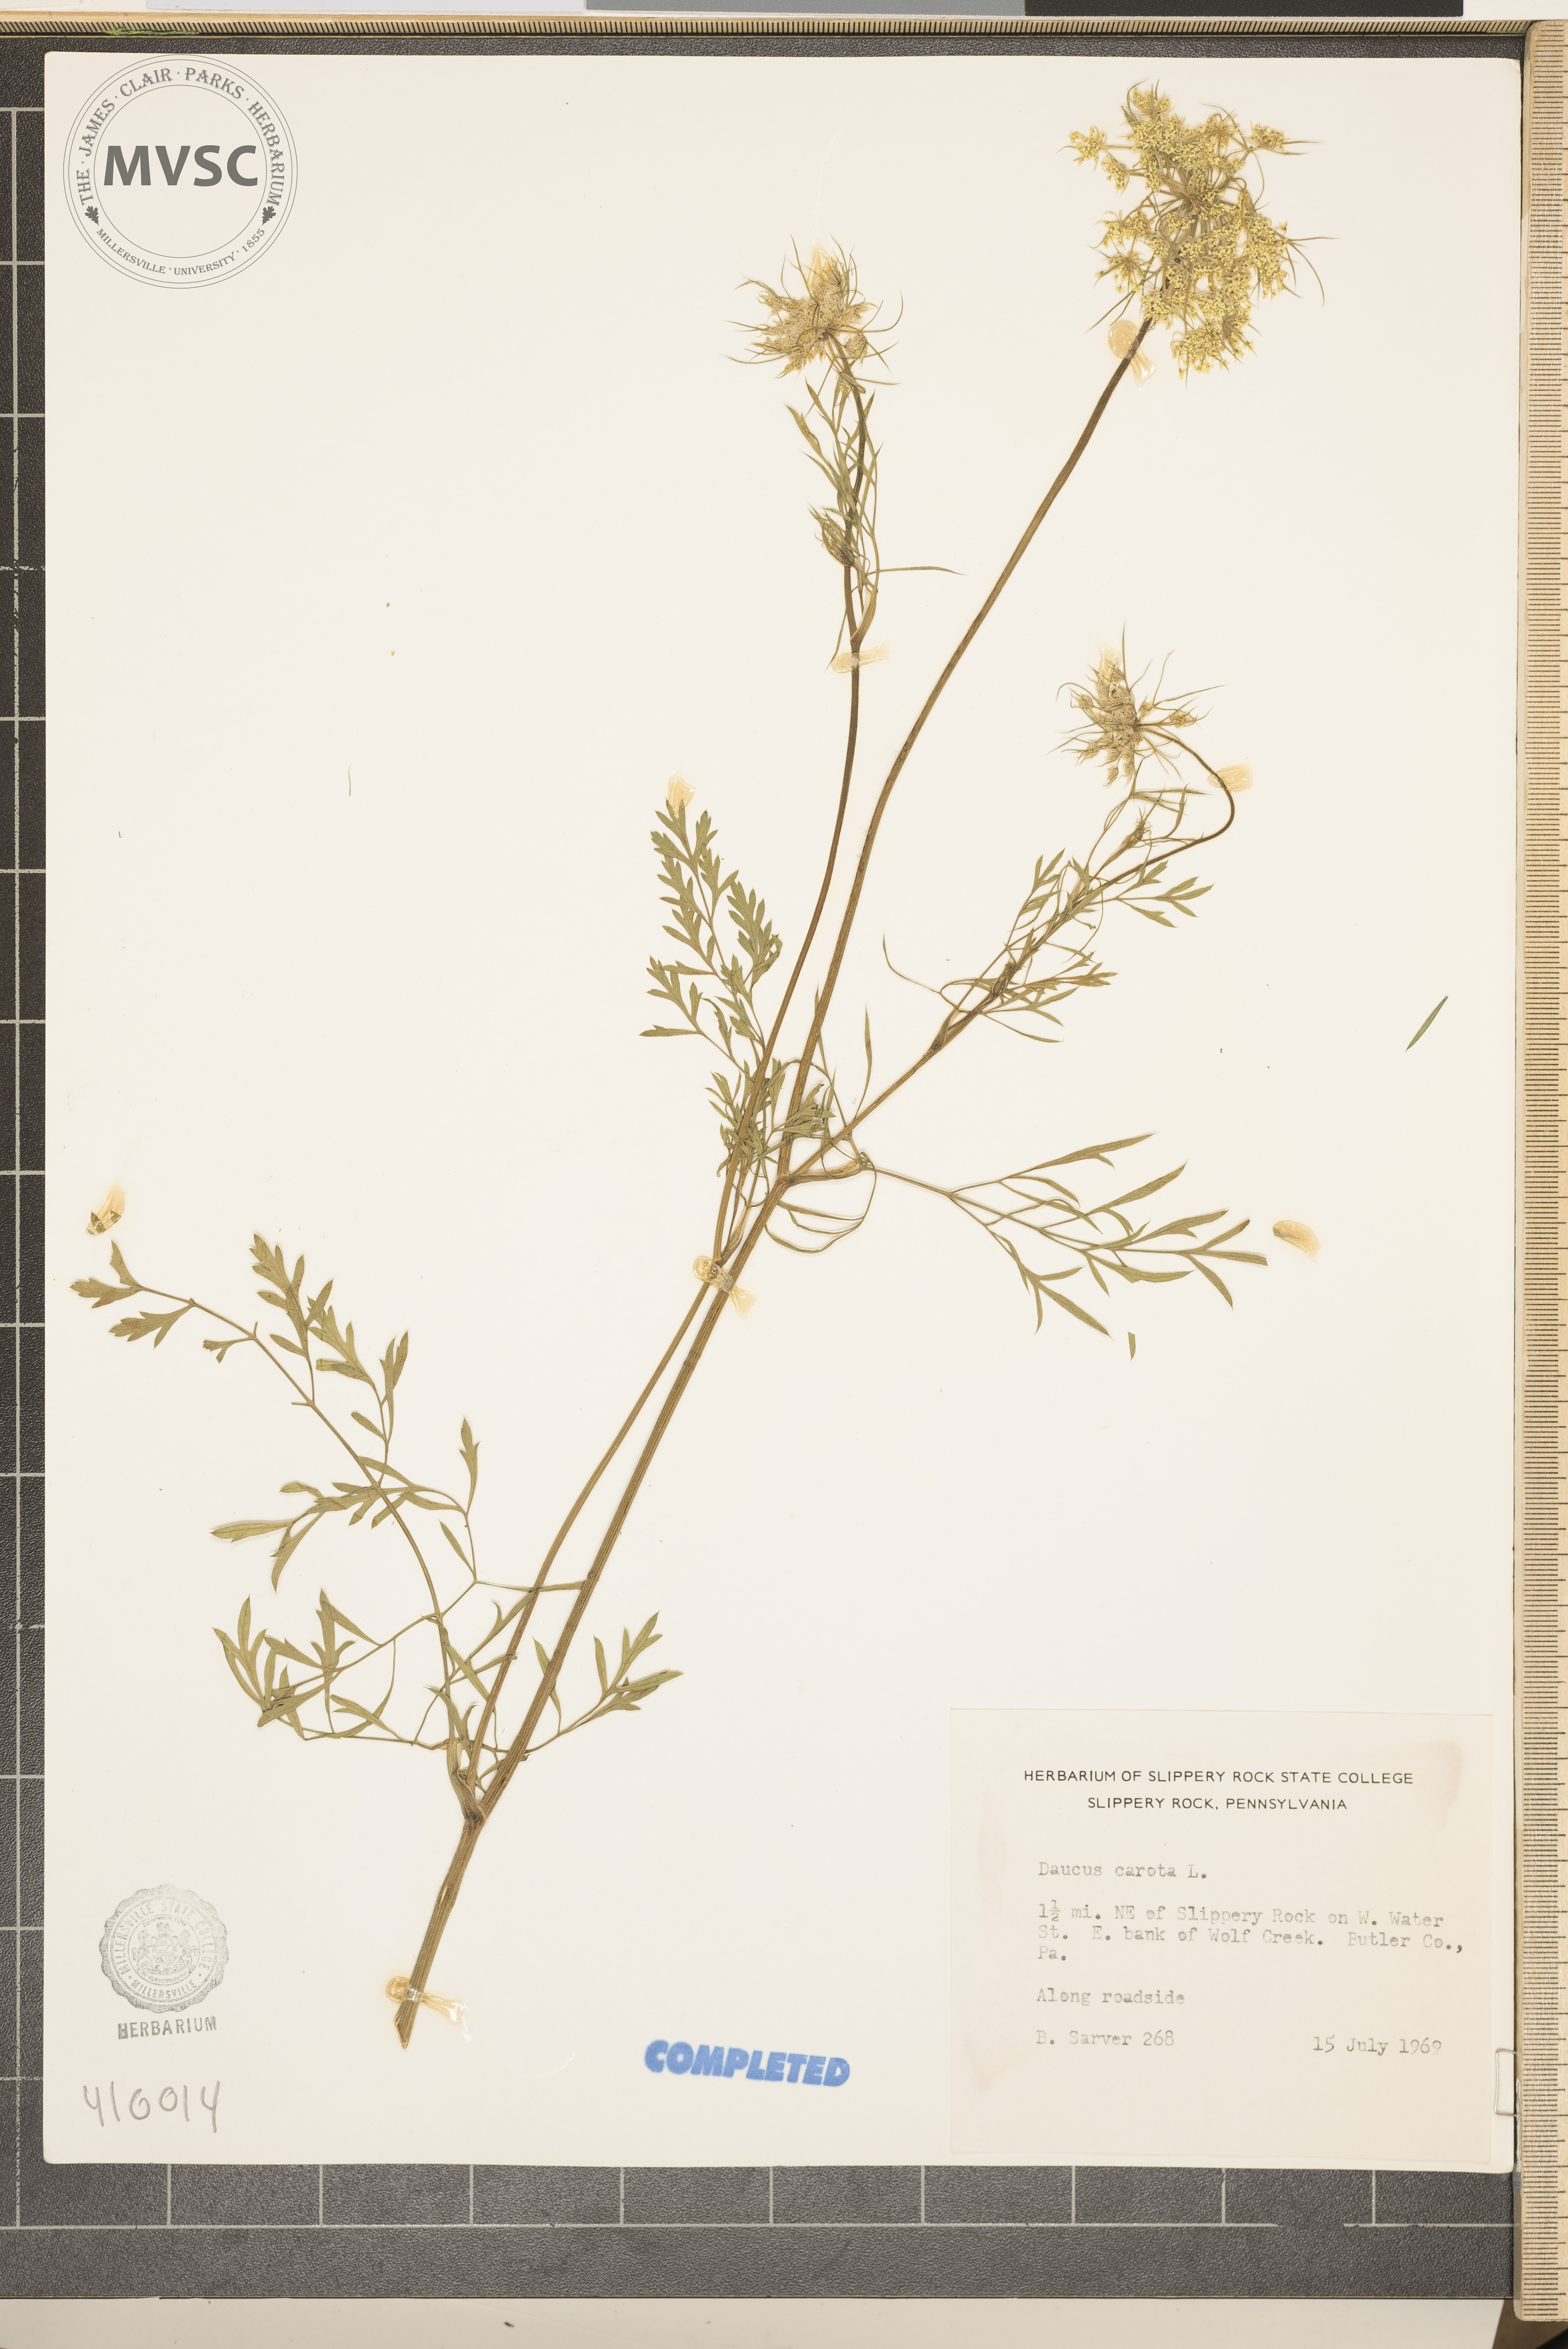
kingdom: Plantae
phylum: Tracheophyta
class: Magnoliopsida
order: Apiales
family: Apiaceae
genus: Daucus
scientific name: Daucus carota
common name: Wild carrot
